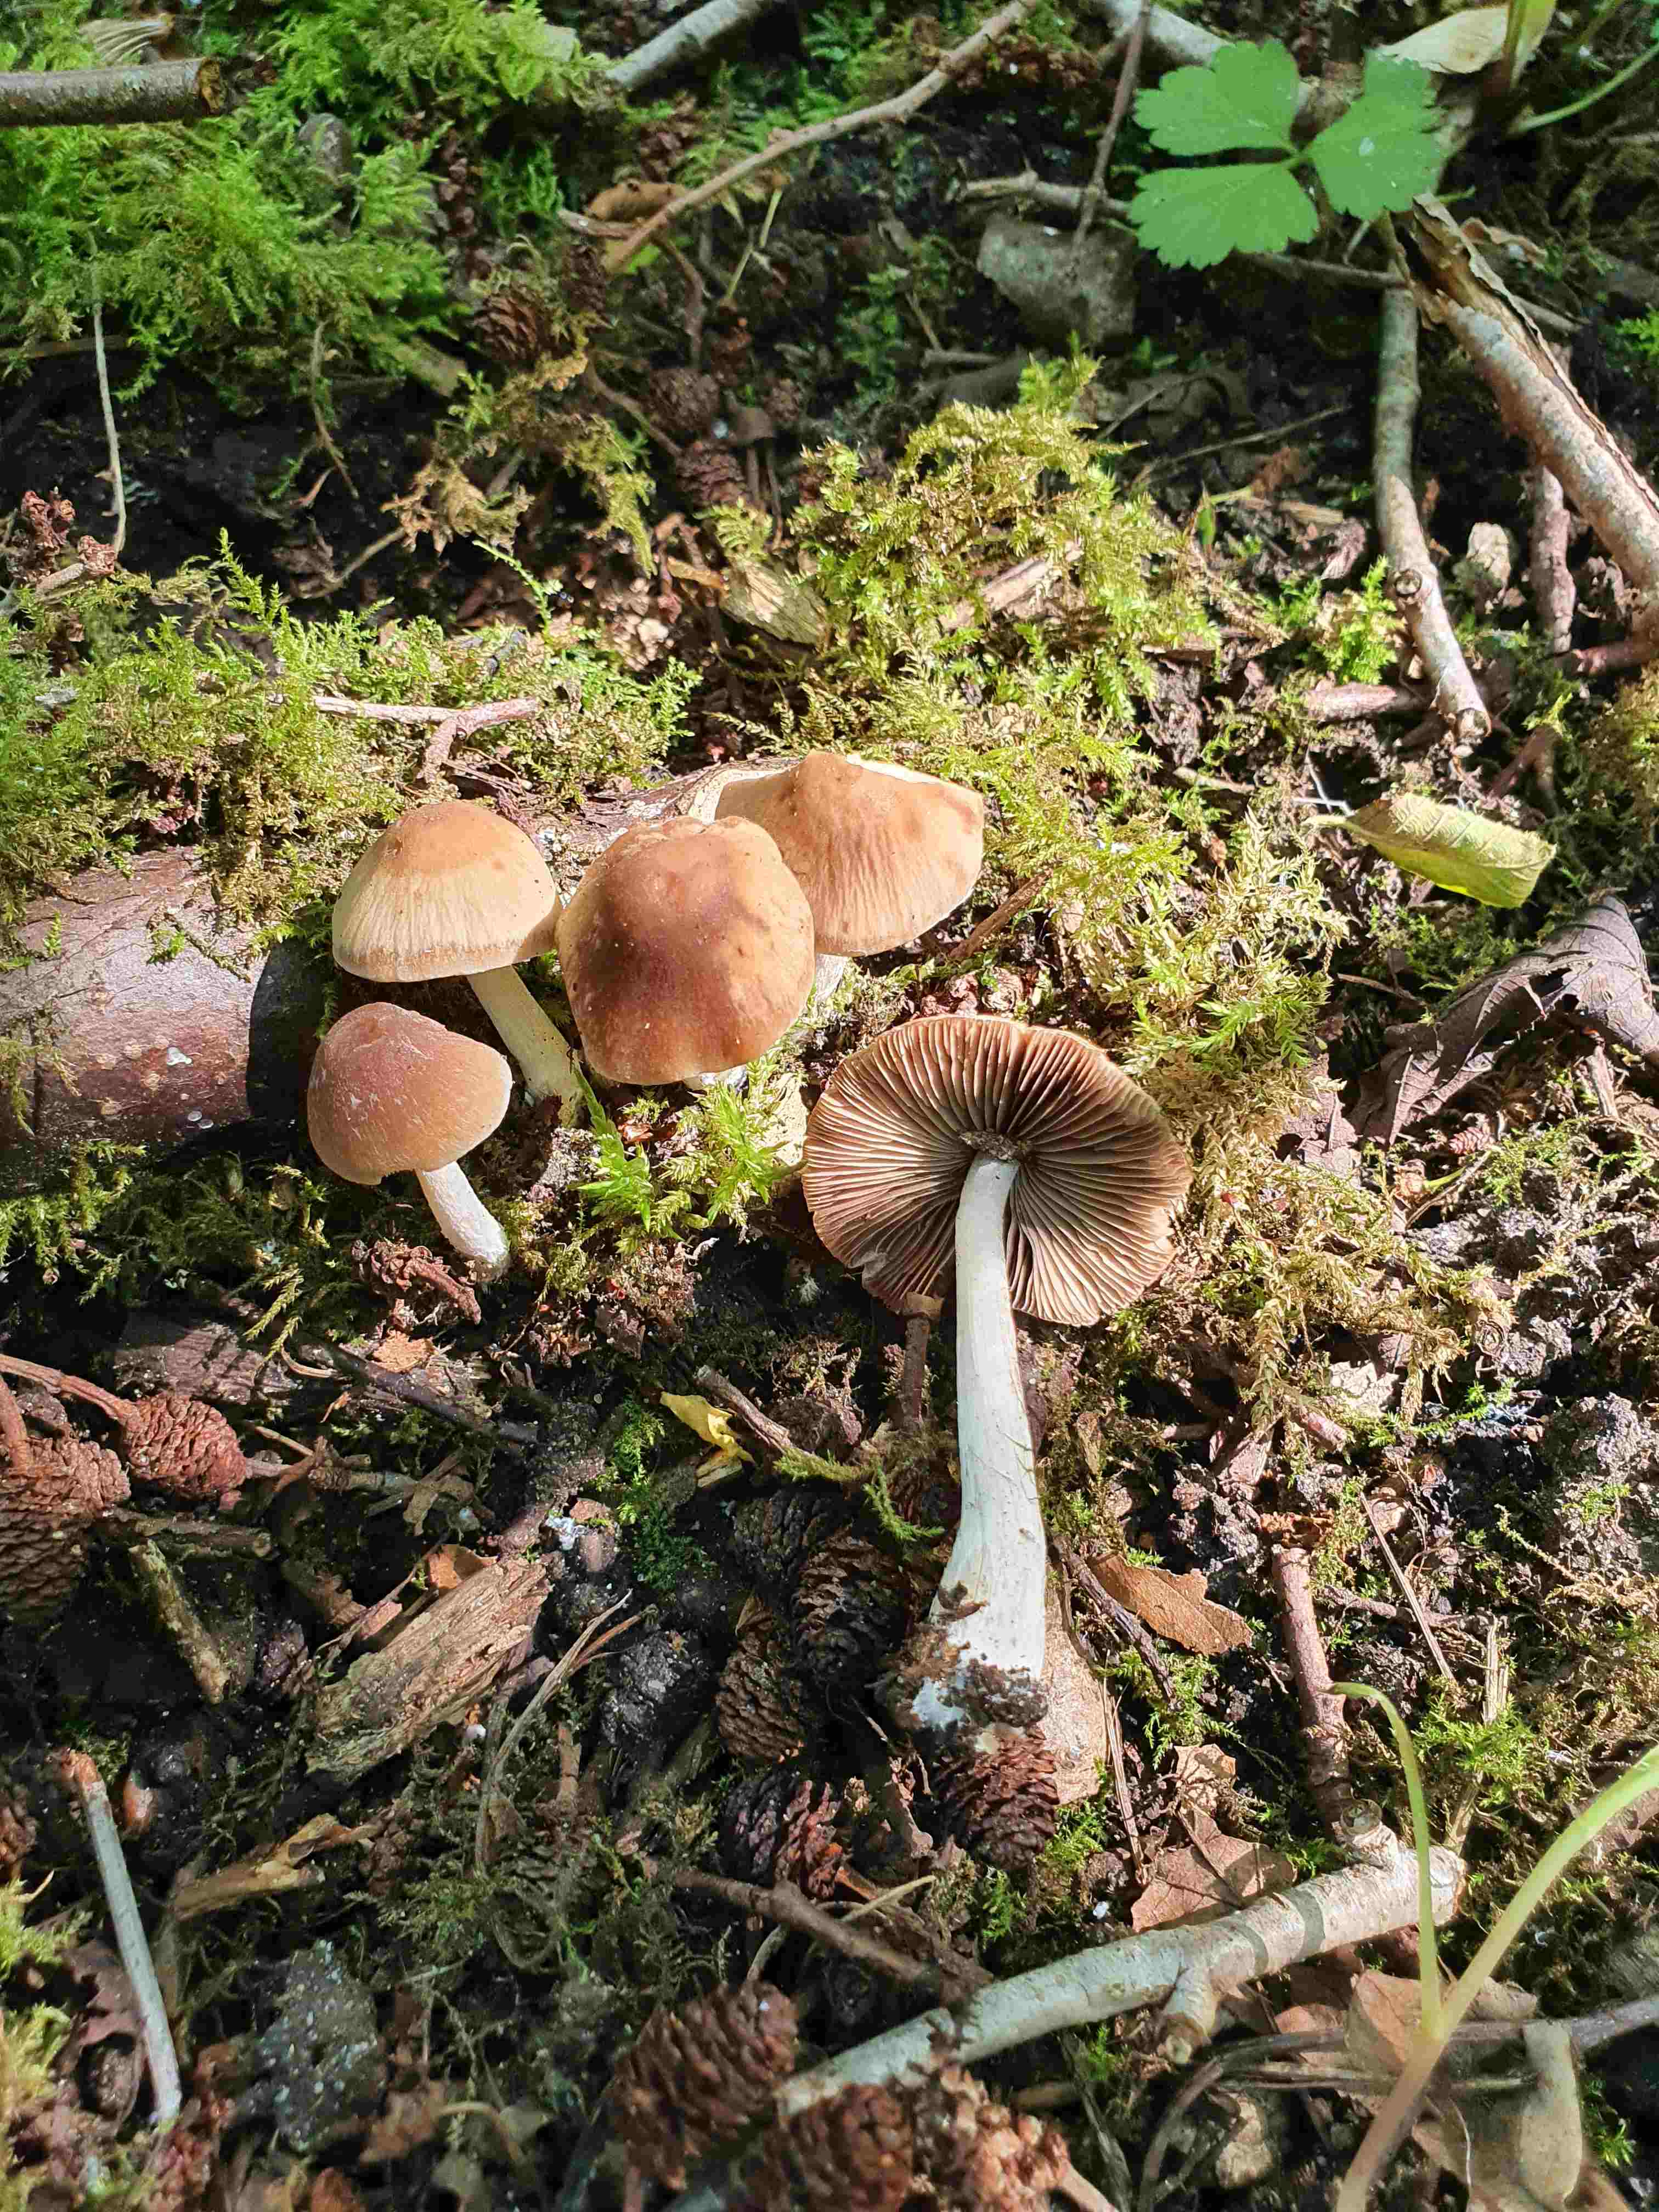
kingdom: Fungi
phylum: Basidiomycota
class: Agaricomycetes
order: Agaricales
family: Psathyrellaceae
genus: Psathyrella
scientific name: Psathyrella
